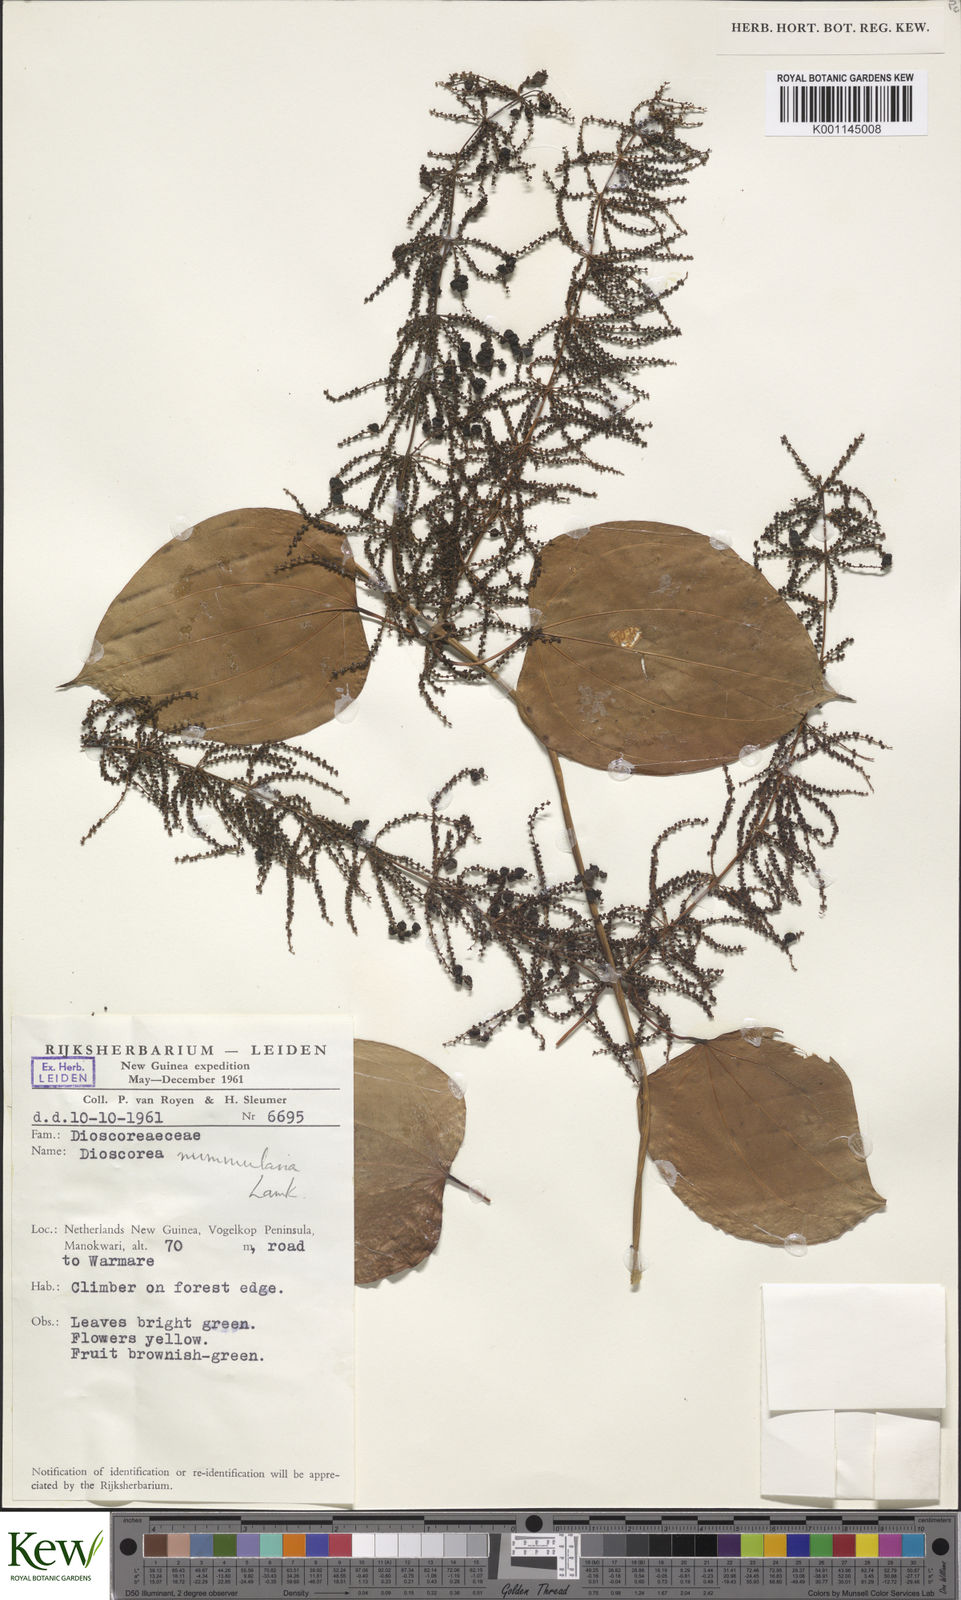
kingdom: Plantae
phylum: Tracheophyta
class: Liliopsida
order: Dioscoreales
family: Dioscoreaceae
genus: Dioscorea
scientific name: Dioscorea nummularia
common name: Pacific yam
